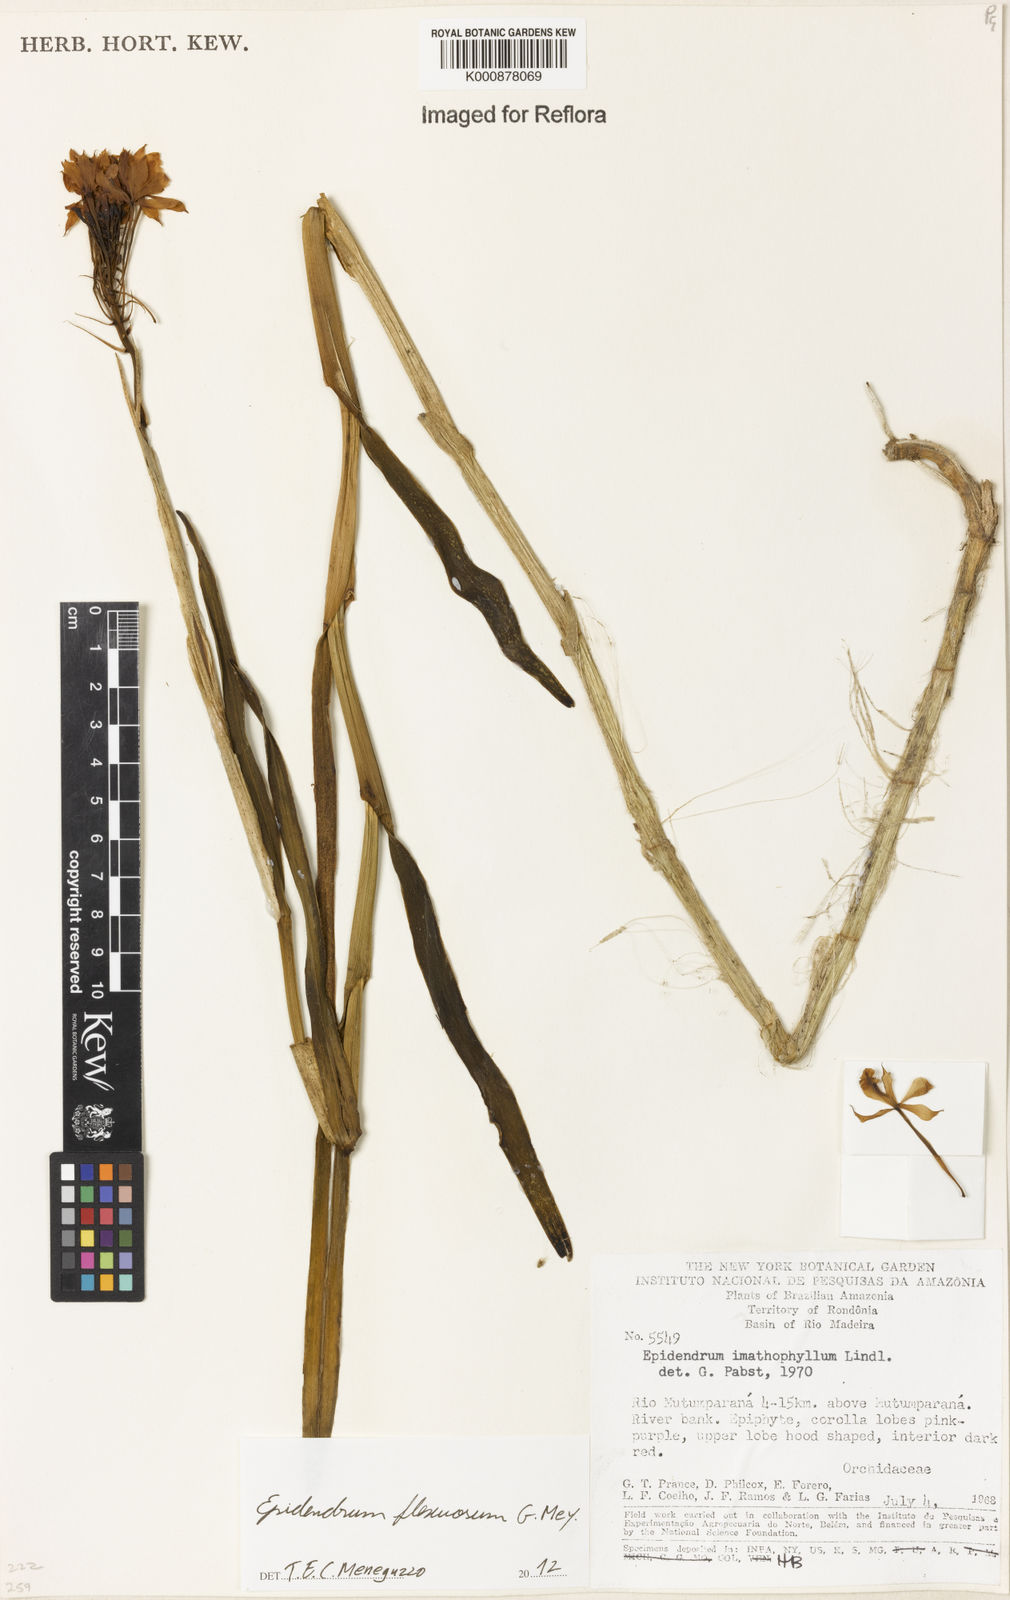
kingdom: Plantae
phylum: Tracheophyta
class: Liliopsida
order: Asparagales
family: Orchidaceae
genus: Epidendrum
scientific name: Epidendrum flexuosum
